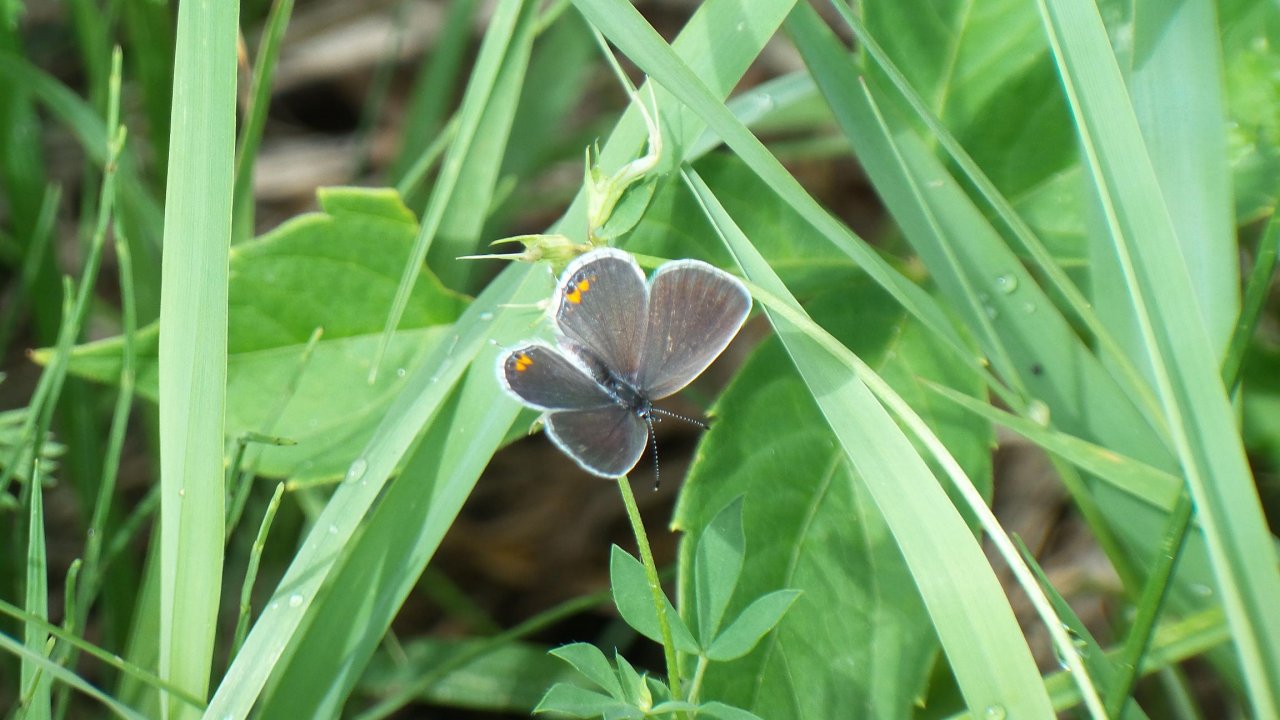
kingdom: Animalia
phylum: Arthropoda
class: Insecta
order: Lepidoptera
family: Lycaenidae
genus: Elkalyce
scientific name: Elkalyce comyntas
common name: Eastern Tailed-Blue
